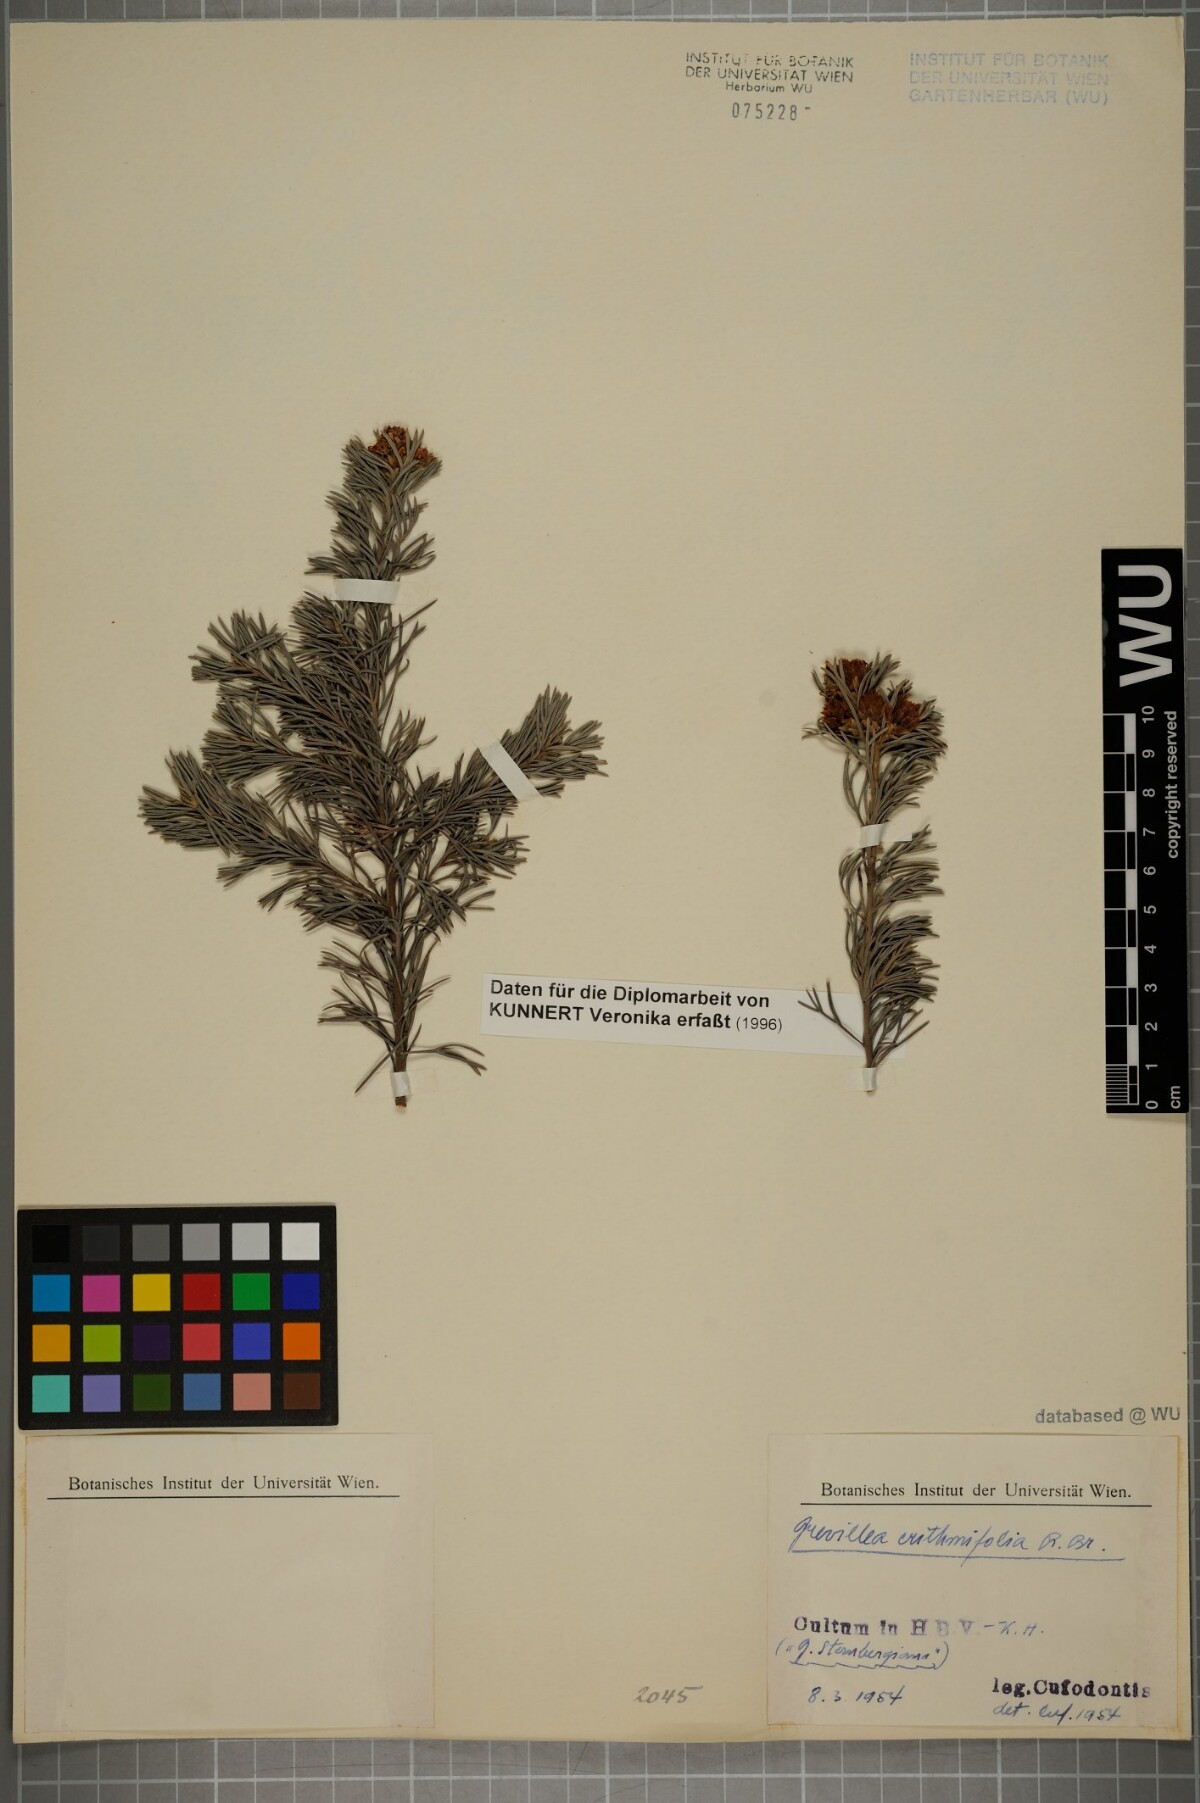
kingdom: Plantae
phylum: Tracheophyta
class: Magnoliopsida
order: Proteales
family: Proteaceae
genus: Grevillea
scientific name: Grevillea crithmifolia
